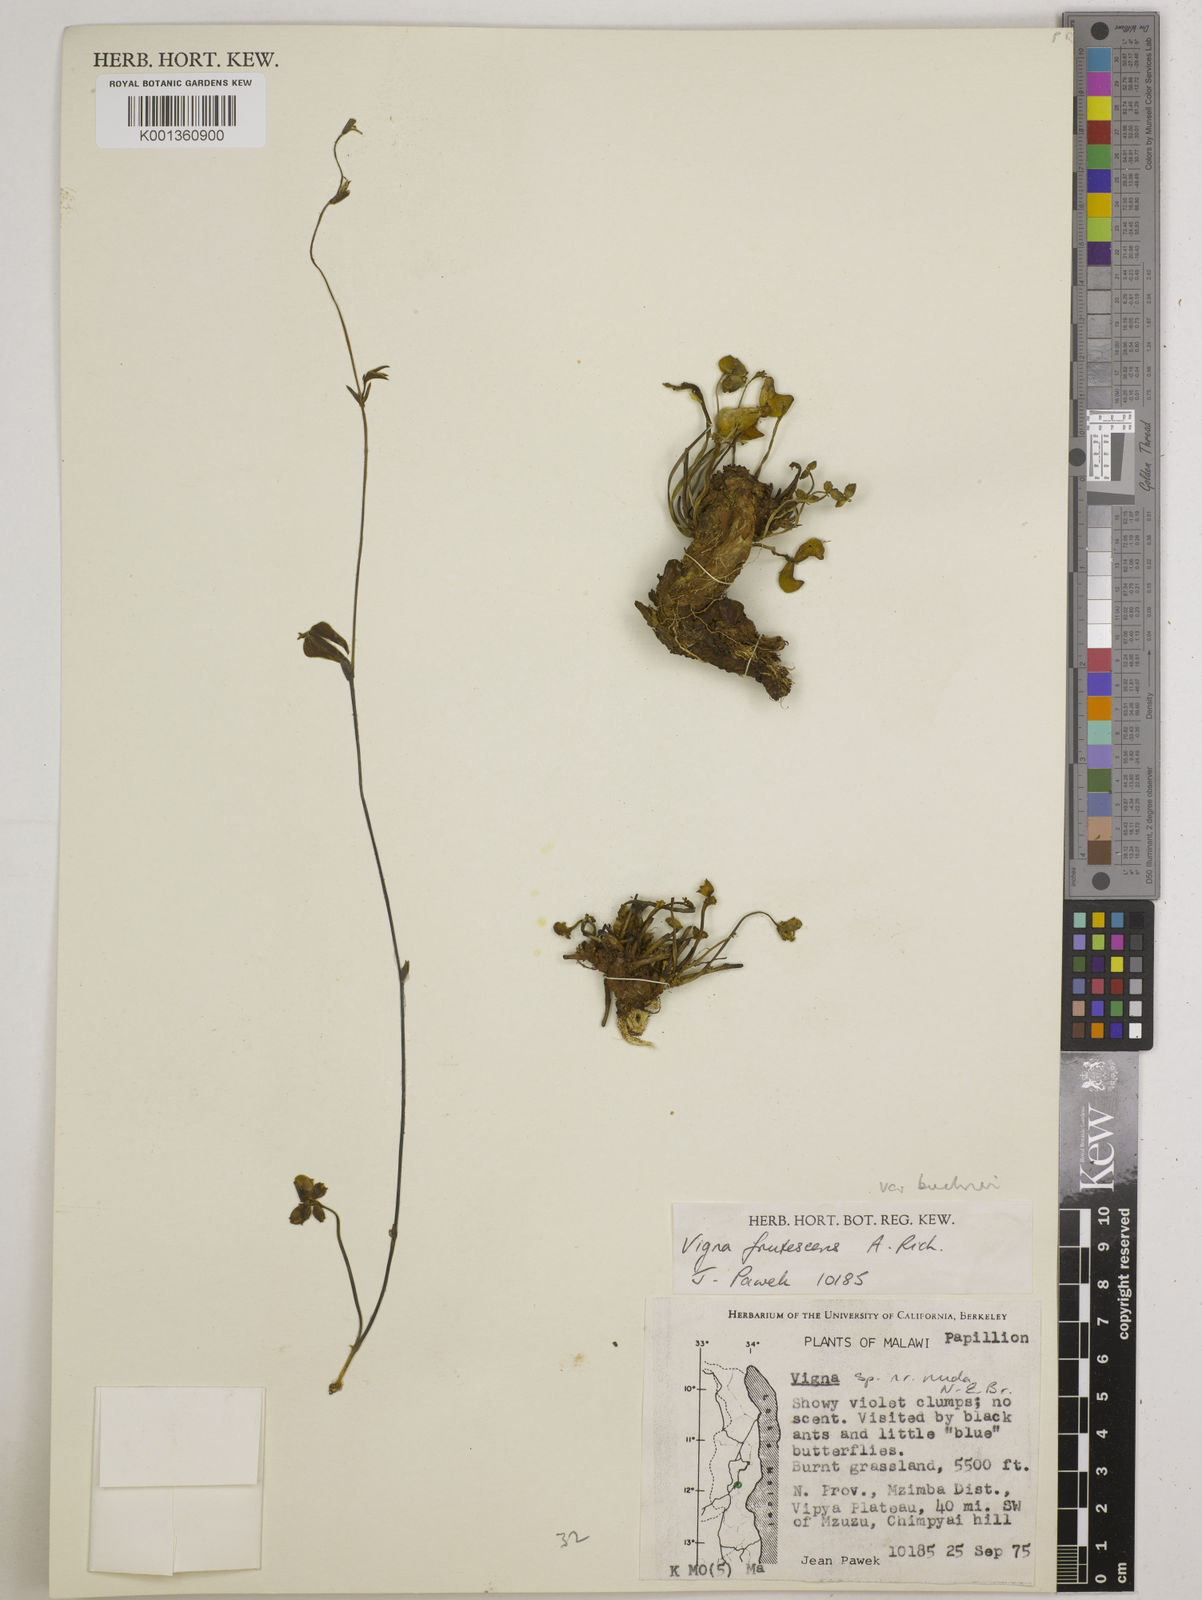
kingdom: Plantae
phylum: Tracheophyta
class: Magnoliopsida
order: Fabales
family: Fabaceae
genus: Vigna
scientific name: Vigna
